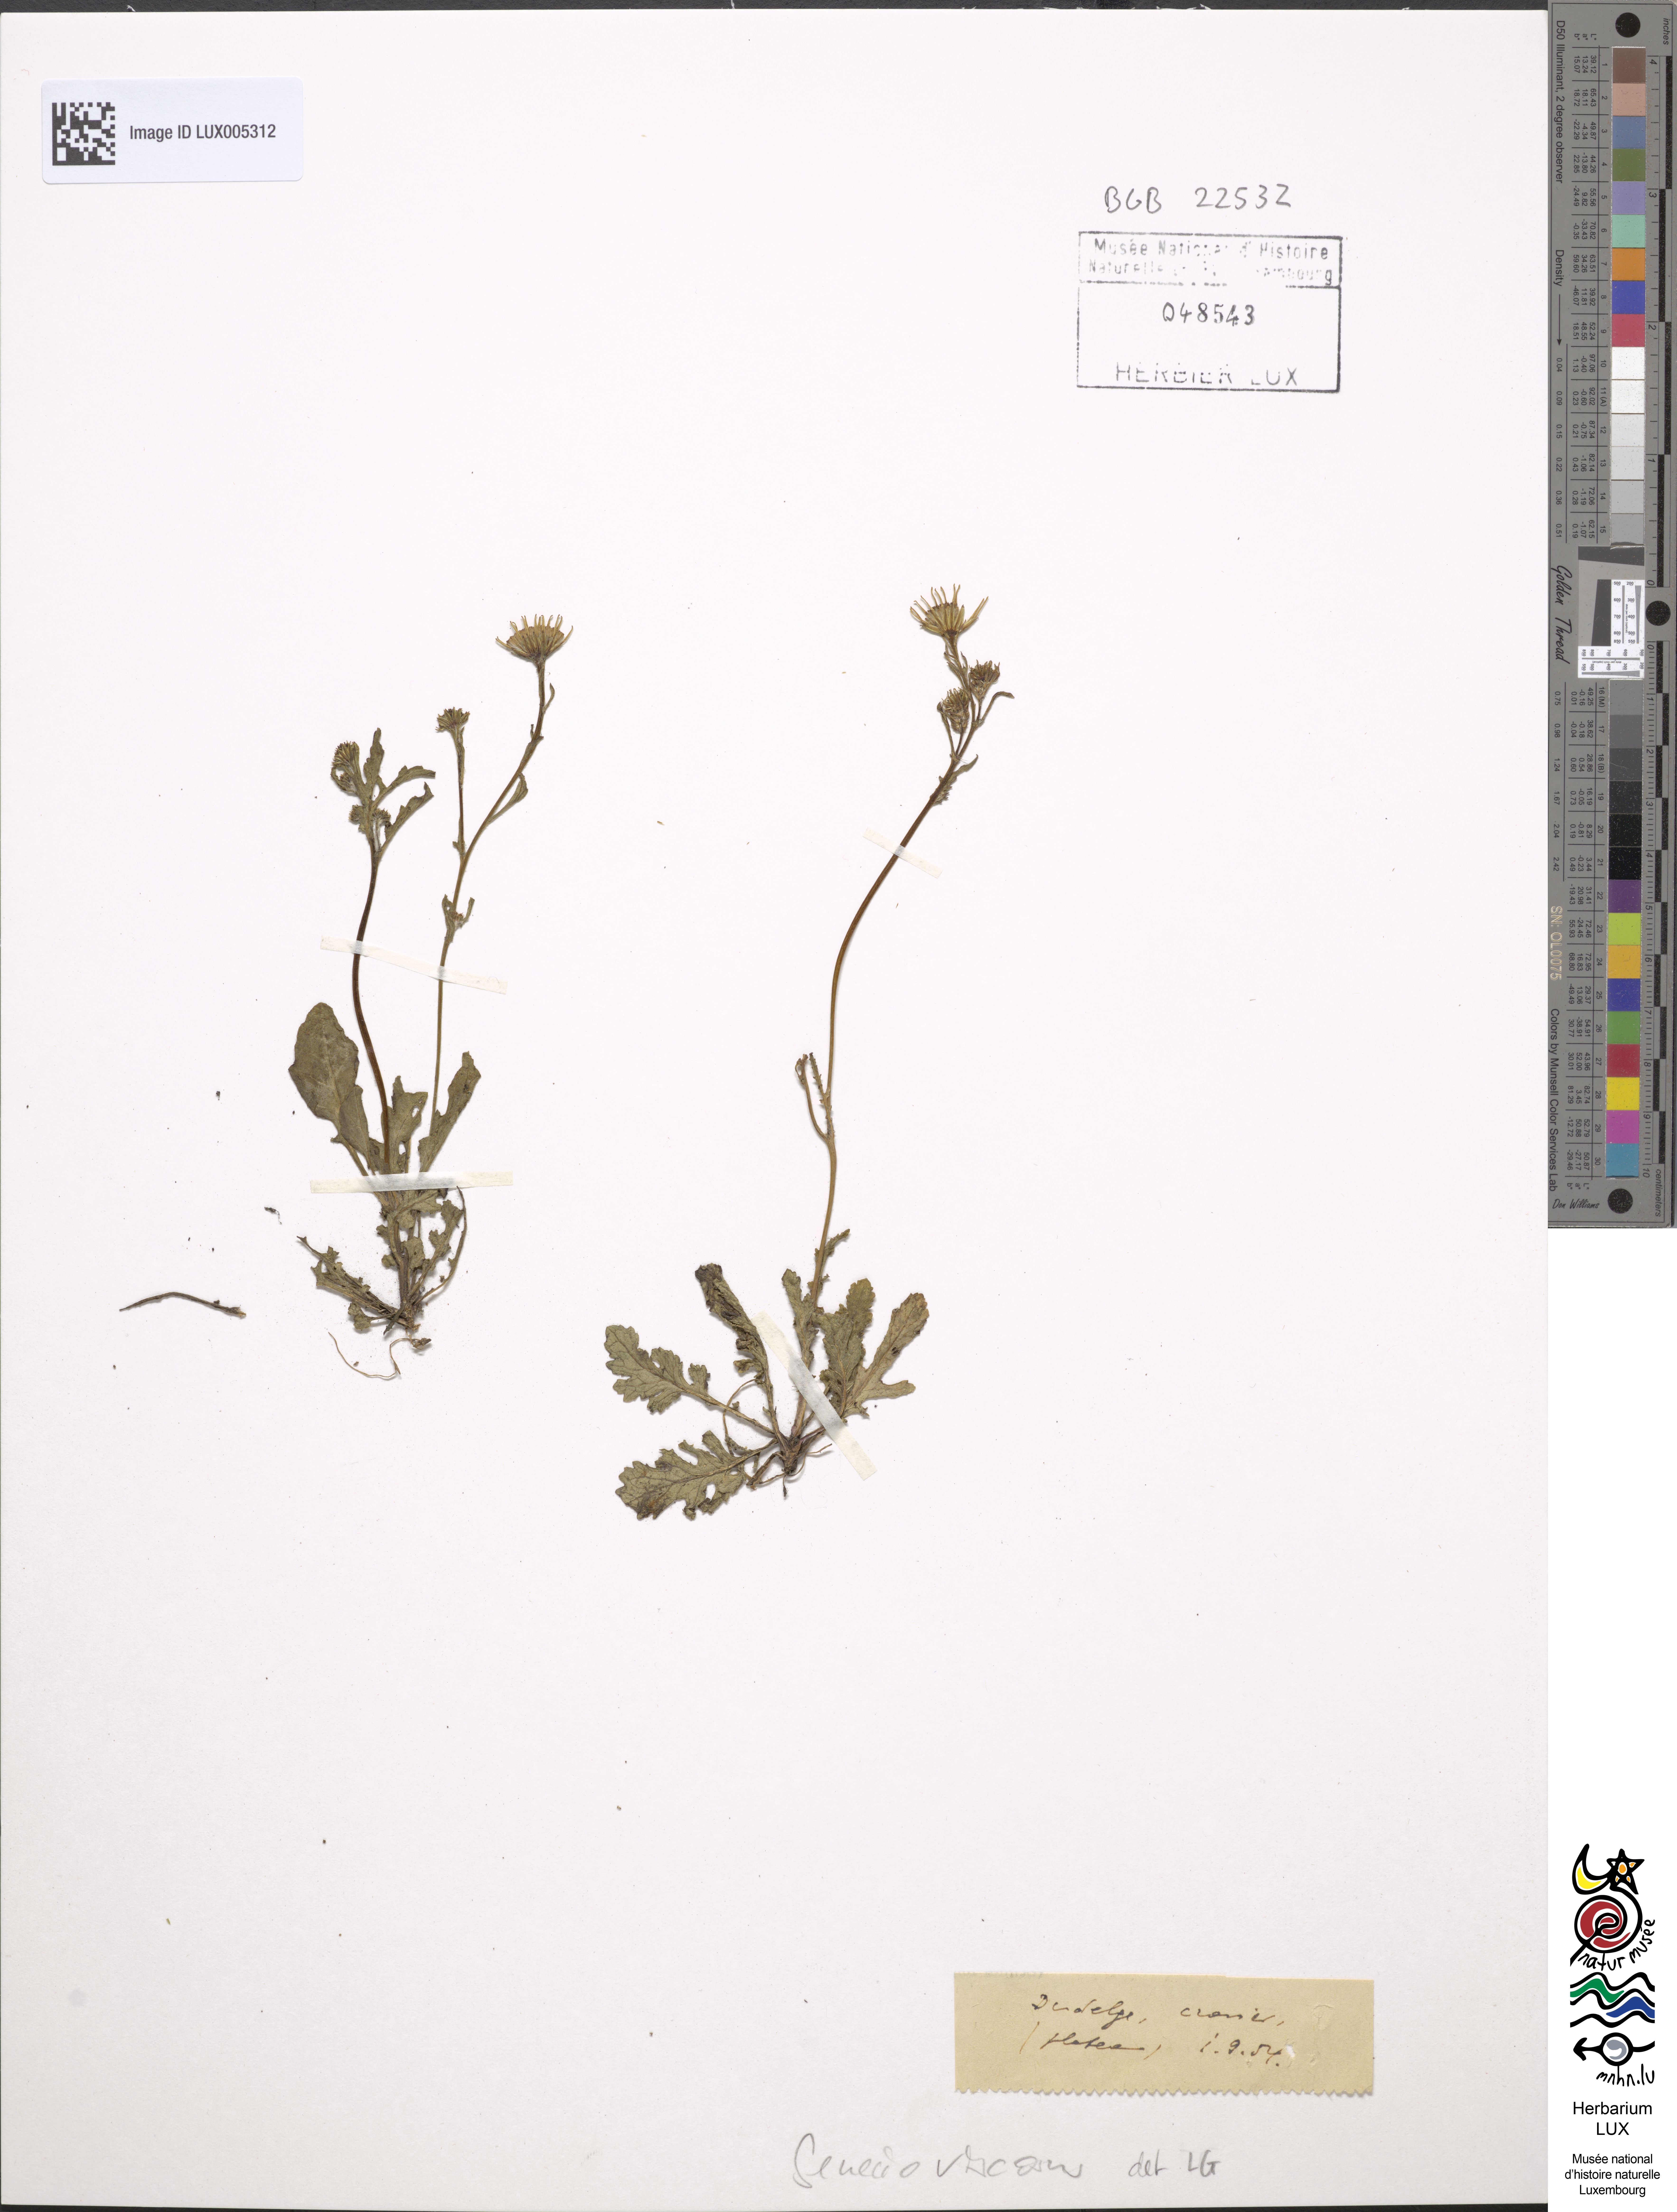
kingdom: Plantae
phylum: Tracheophyta
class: Magnoliopsida
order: Asterales
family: Asteraceae
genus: Senecio
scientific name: Senecio viscosus
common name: Sticky groundsel
